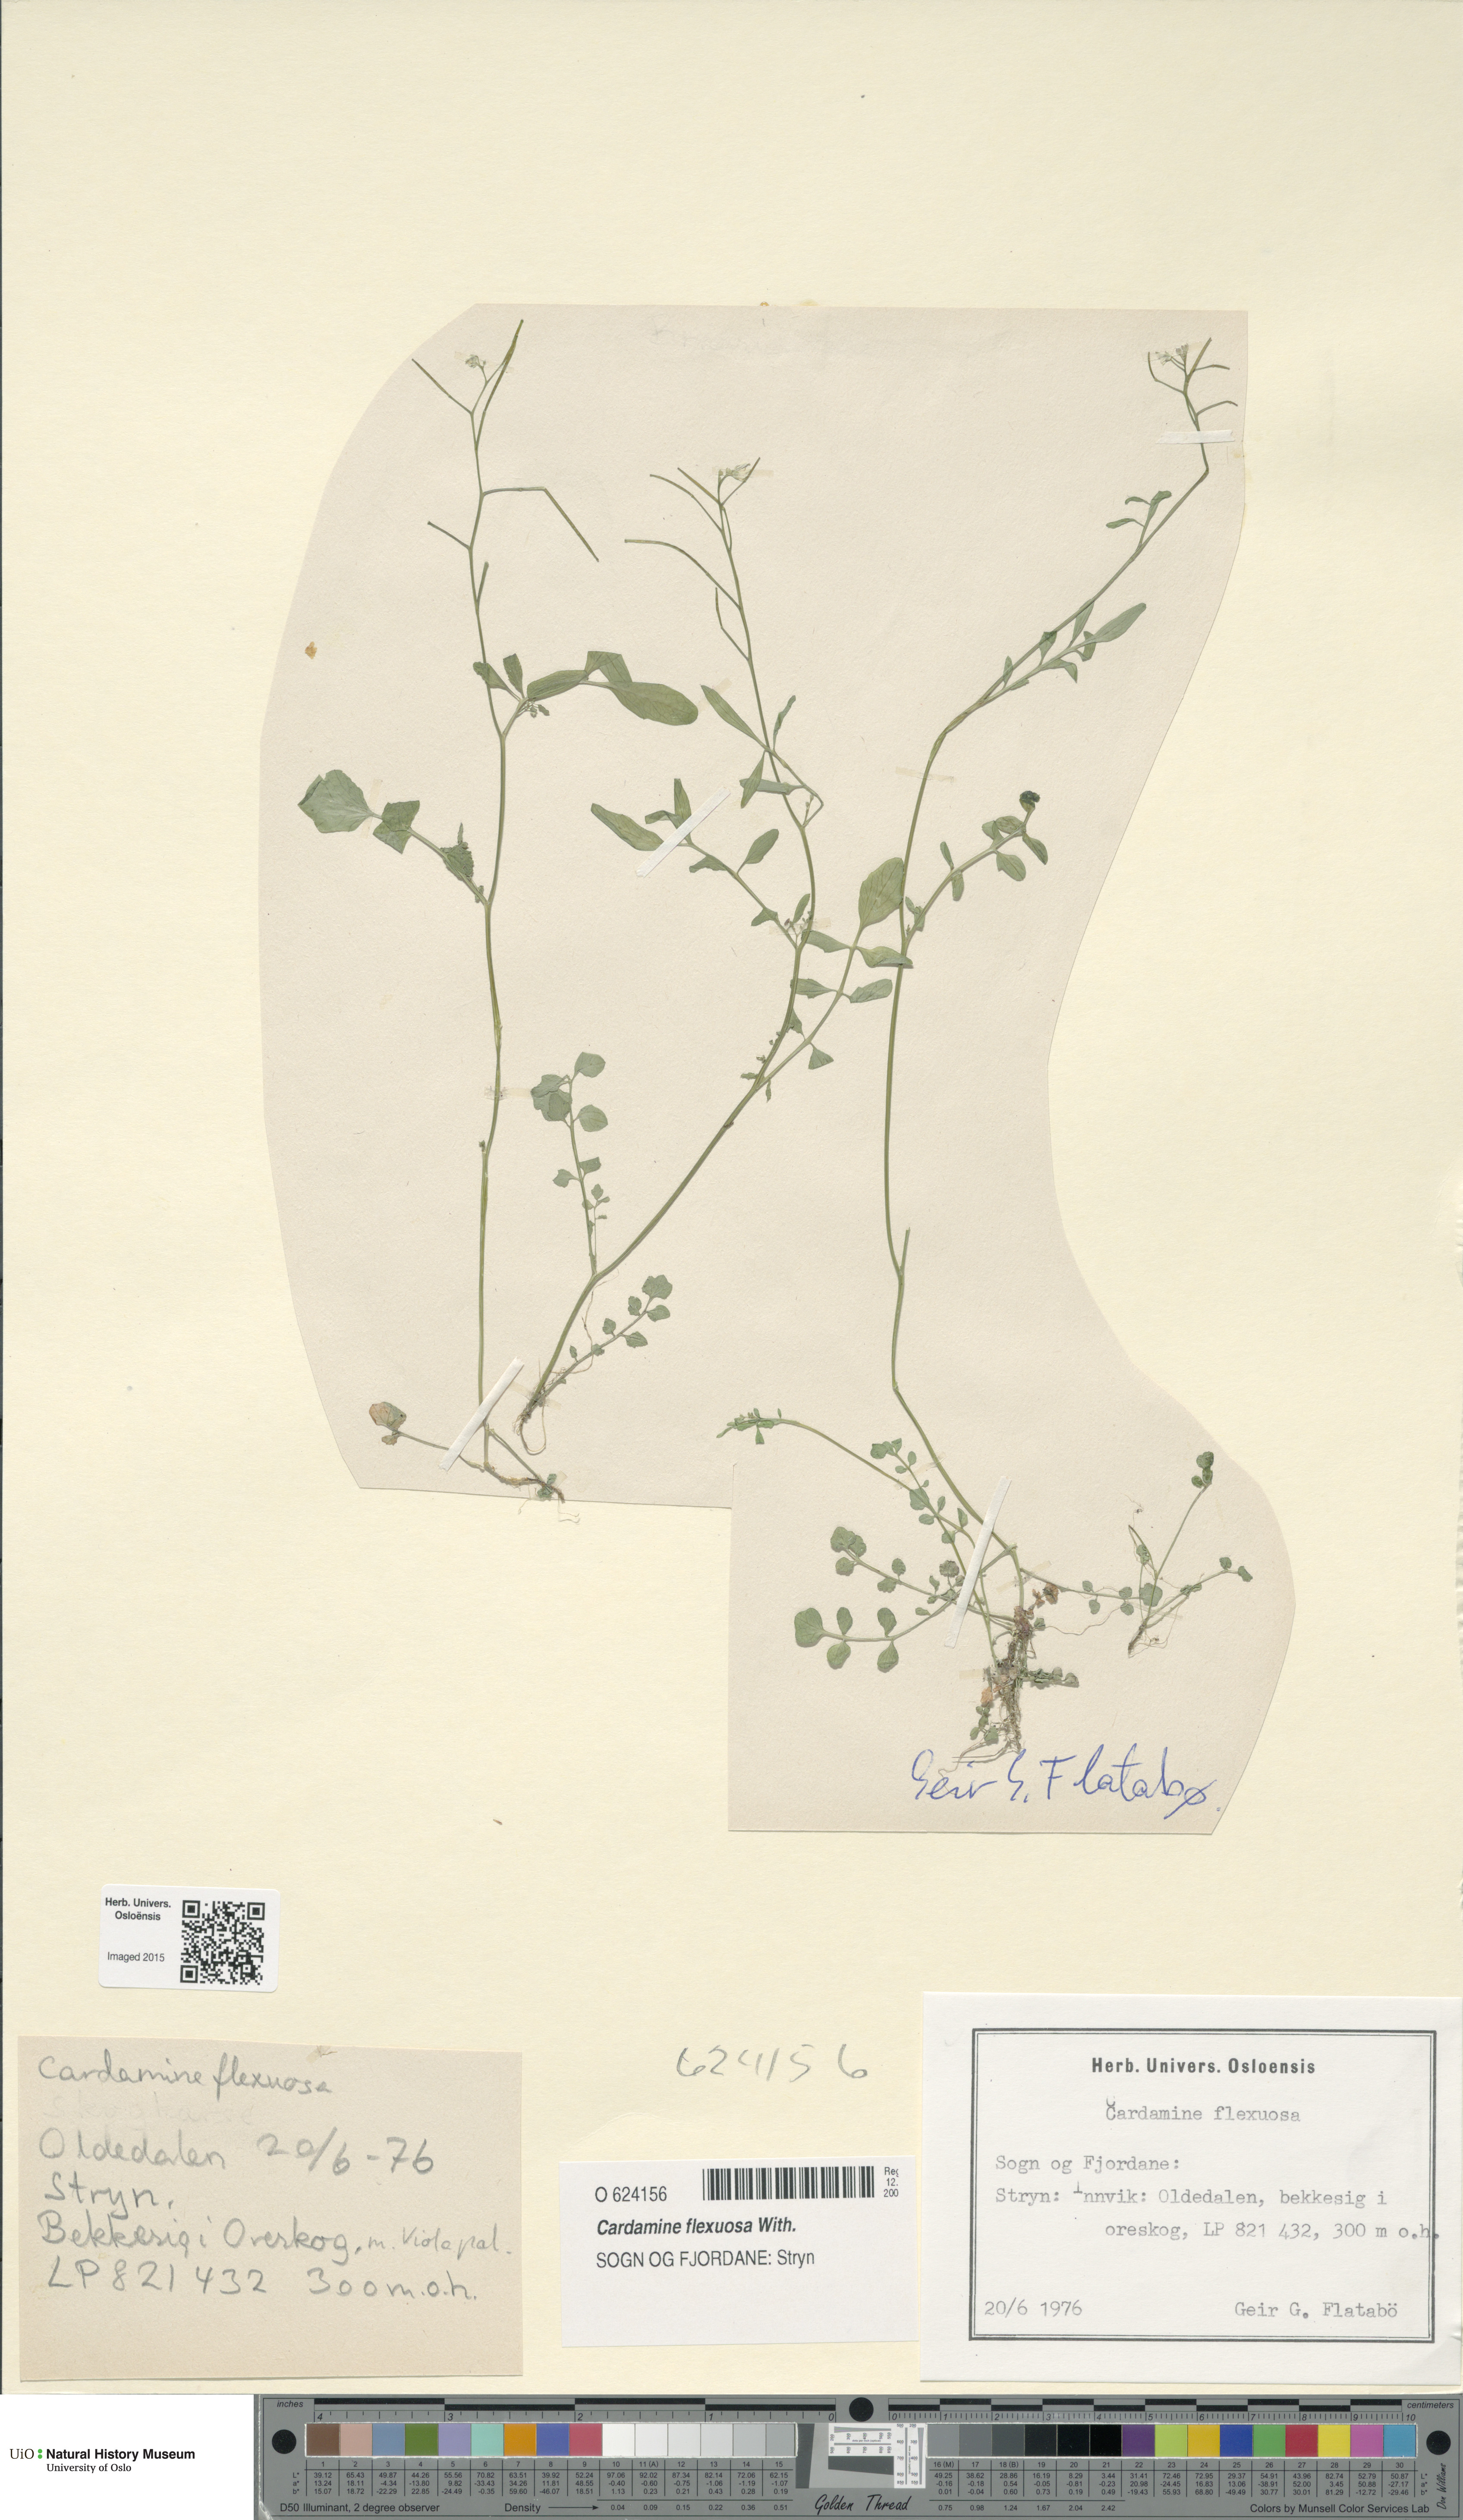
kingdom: Plantae
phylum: Tracheophyta
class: Magnoliopsida
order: Brassicales
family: Brassicaceae
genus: Cardamine
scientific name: Cardamine flexuosa
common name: Woodland bittercress
